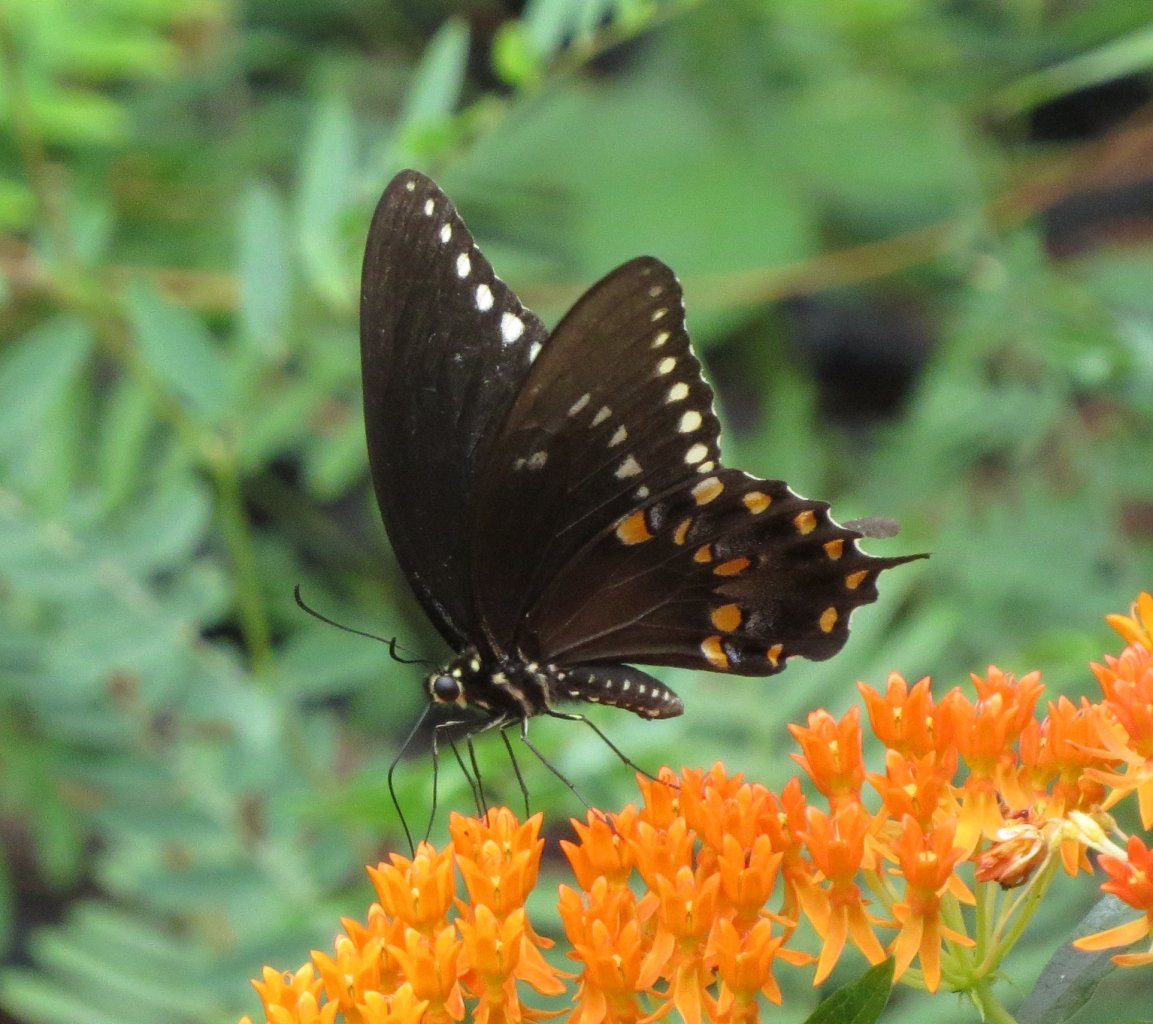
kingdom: Animalia
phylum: Arthropoda
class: Insecta
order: Lepidoptera
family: Papilionidae
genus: Pterourus
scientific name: Pterourus troilus
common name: Spicebush Swallowtail
